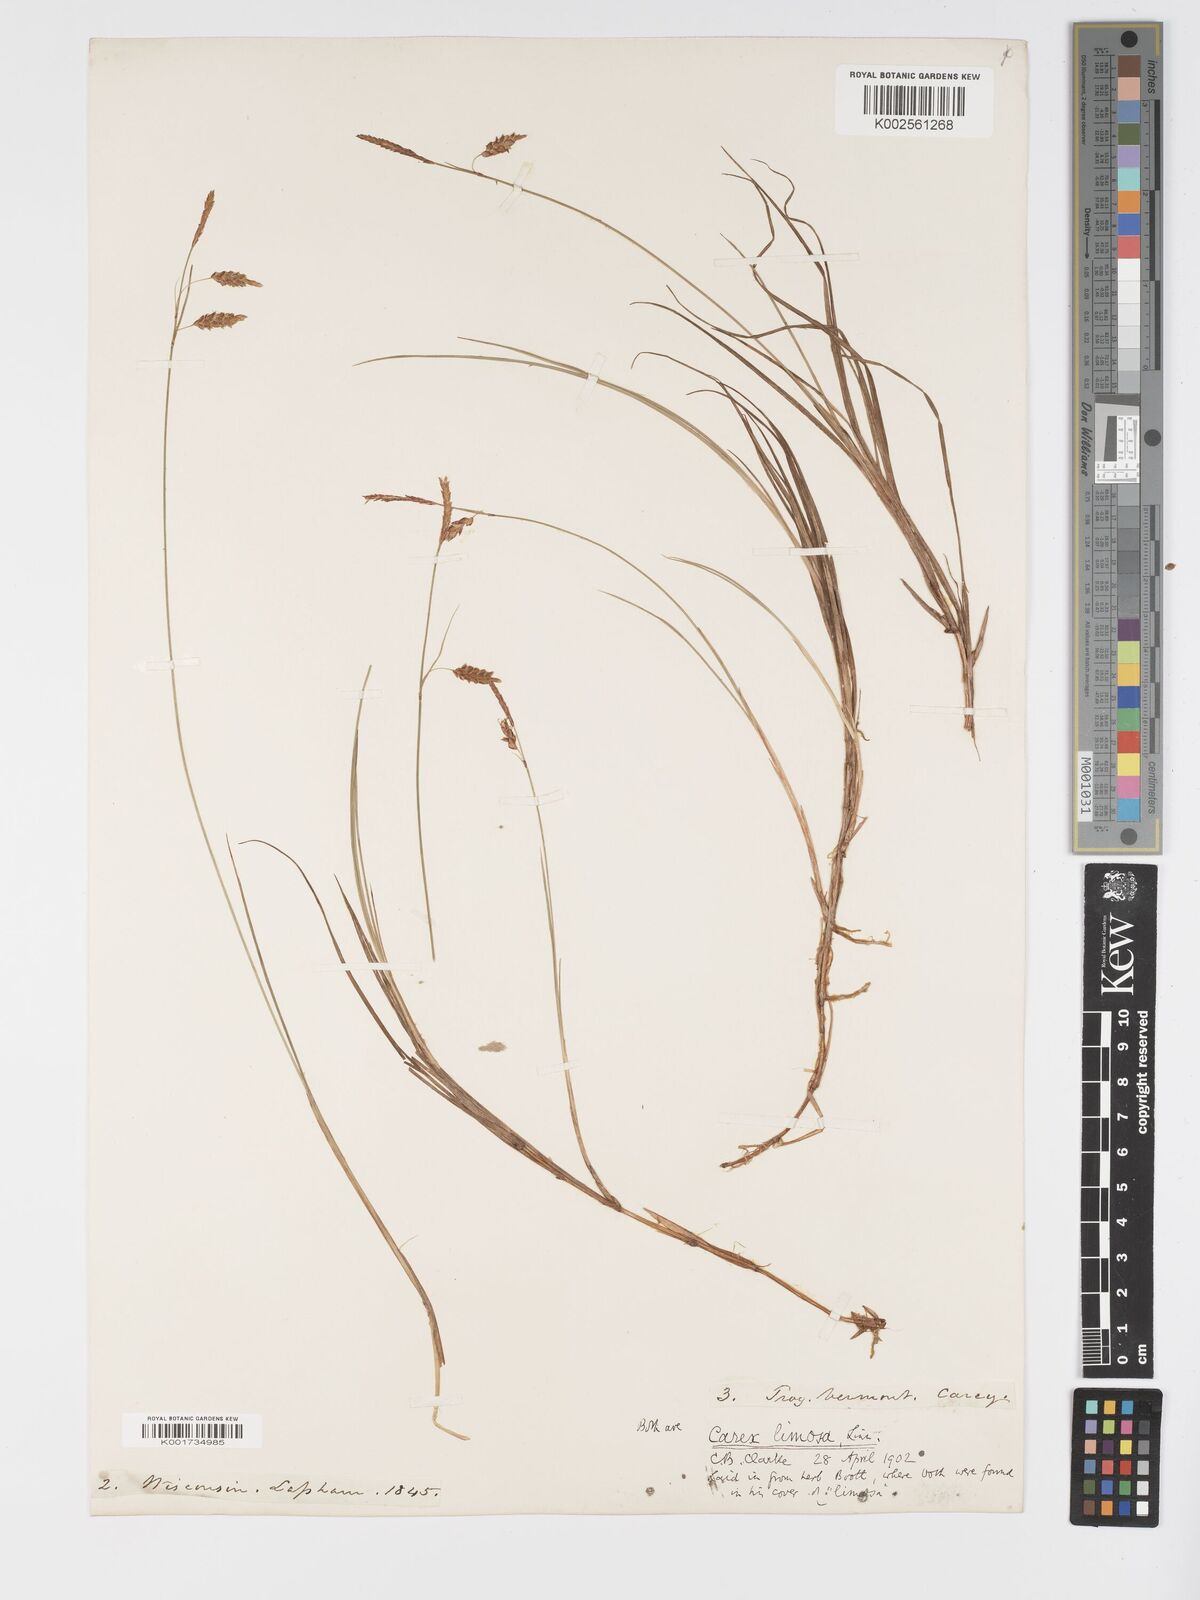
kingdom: Plantae
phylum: Tracheophyta
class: Liliopsida
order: Poales
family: Cyperaceae
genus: Carex
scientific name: Carex limosa
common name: Bog sedge
